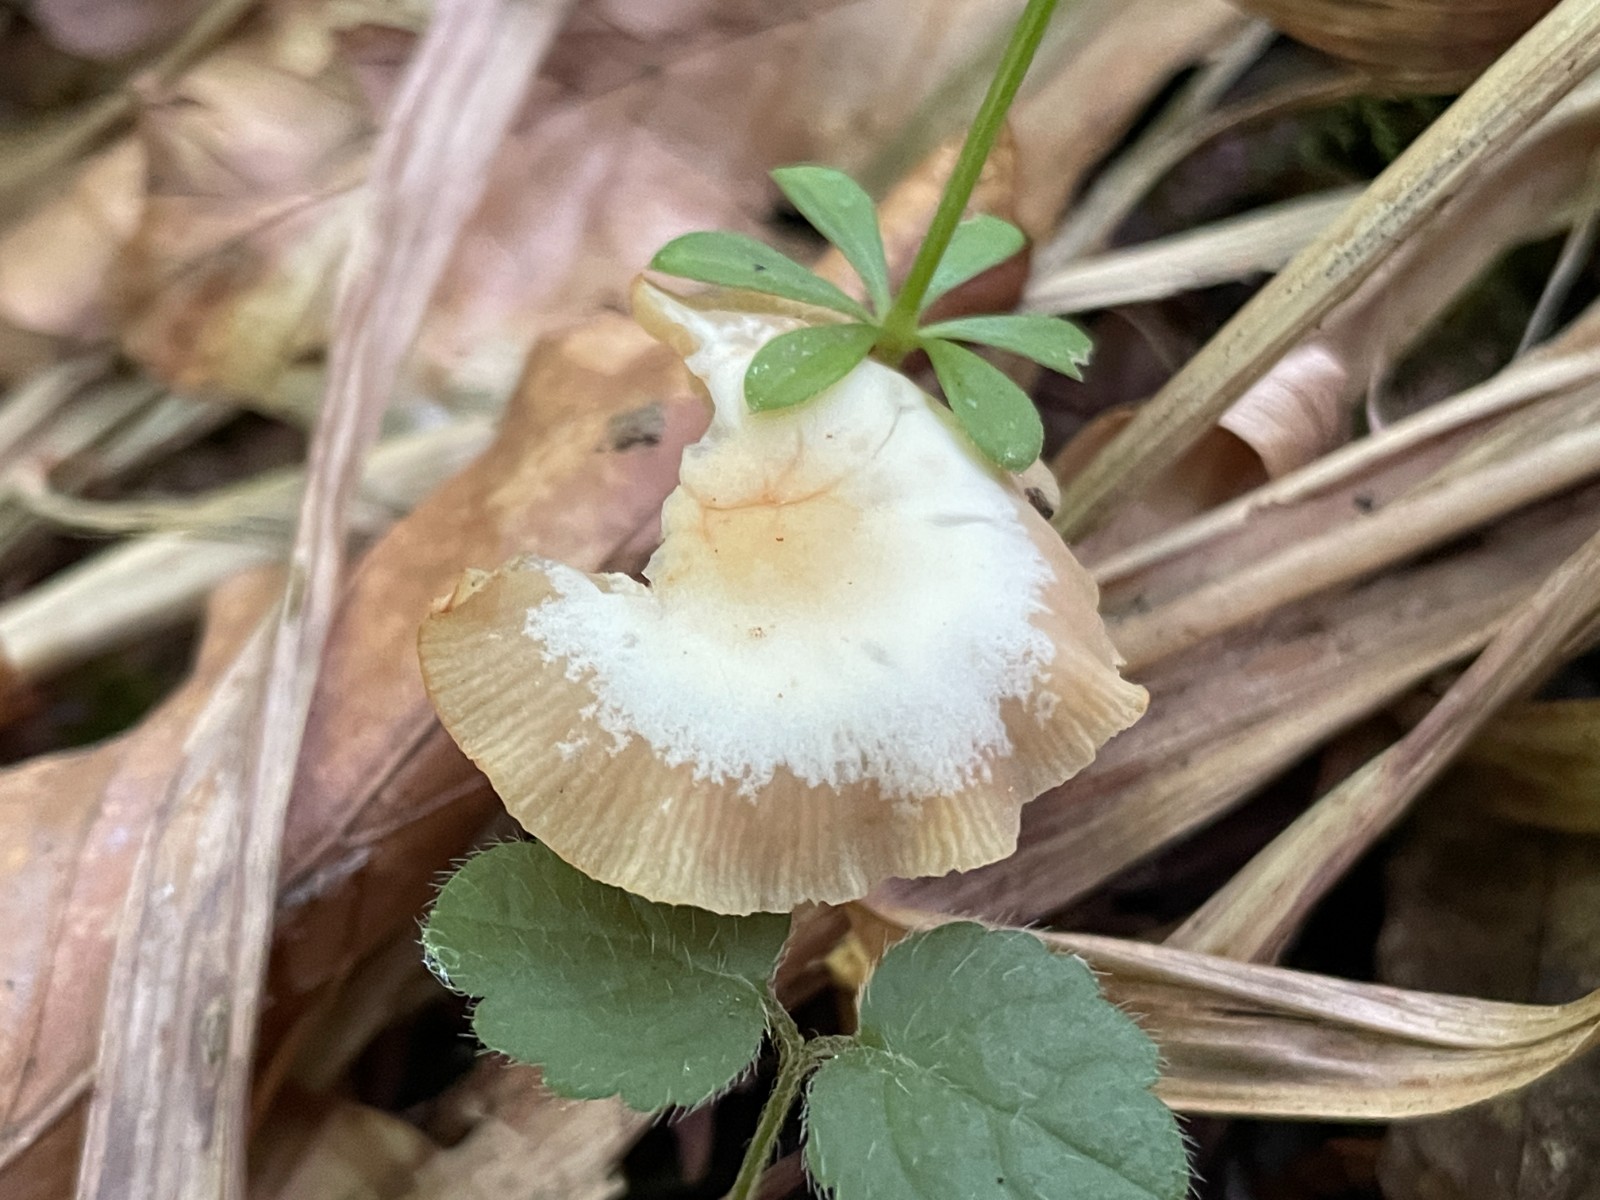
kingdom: Fungi
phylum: Basidiomycota
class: Agaricomycetes
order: Agaricales
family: Omphalotaceae
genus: Gymnopus
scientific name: Gymnopus aquosus
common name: bleg fladhat
